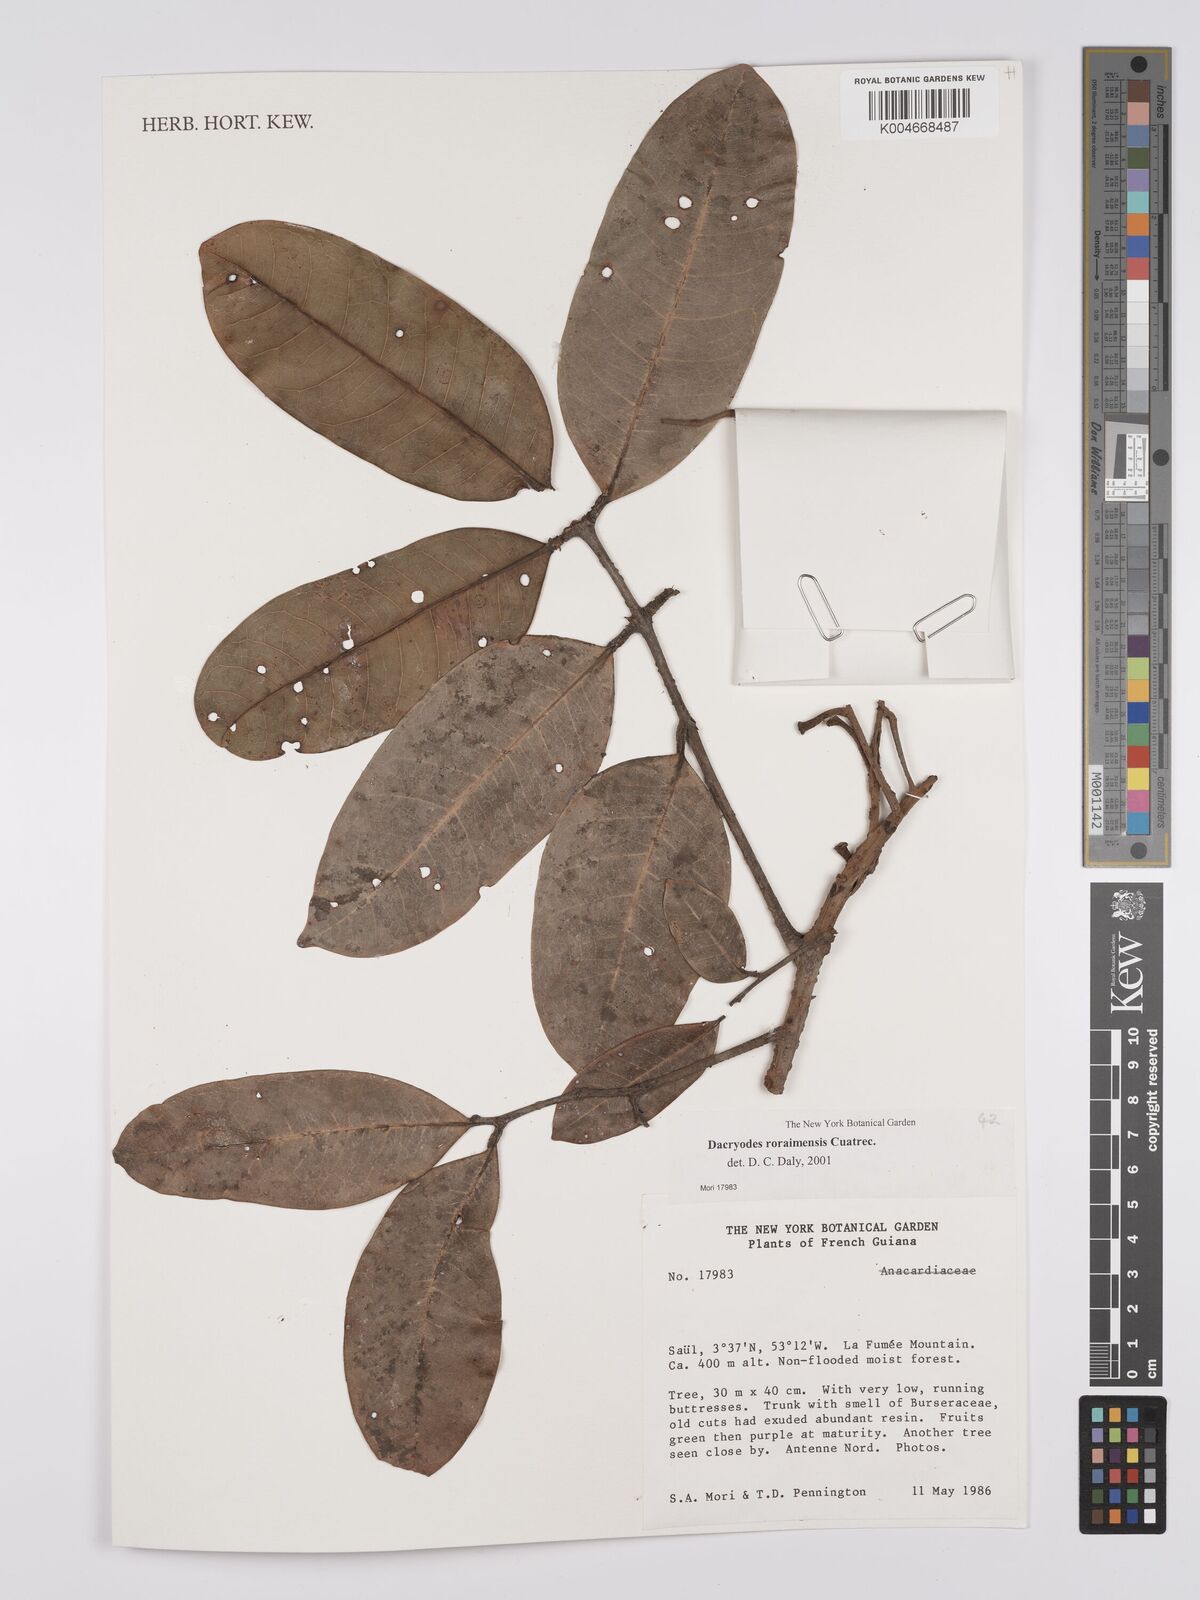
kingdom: Plantae
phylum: Tracheophyta
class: Magnoliopsida
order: Sapindales
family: Burseraceae
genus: Dacryodes
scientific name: Dacryodes roraimensis
